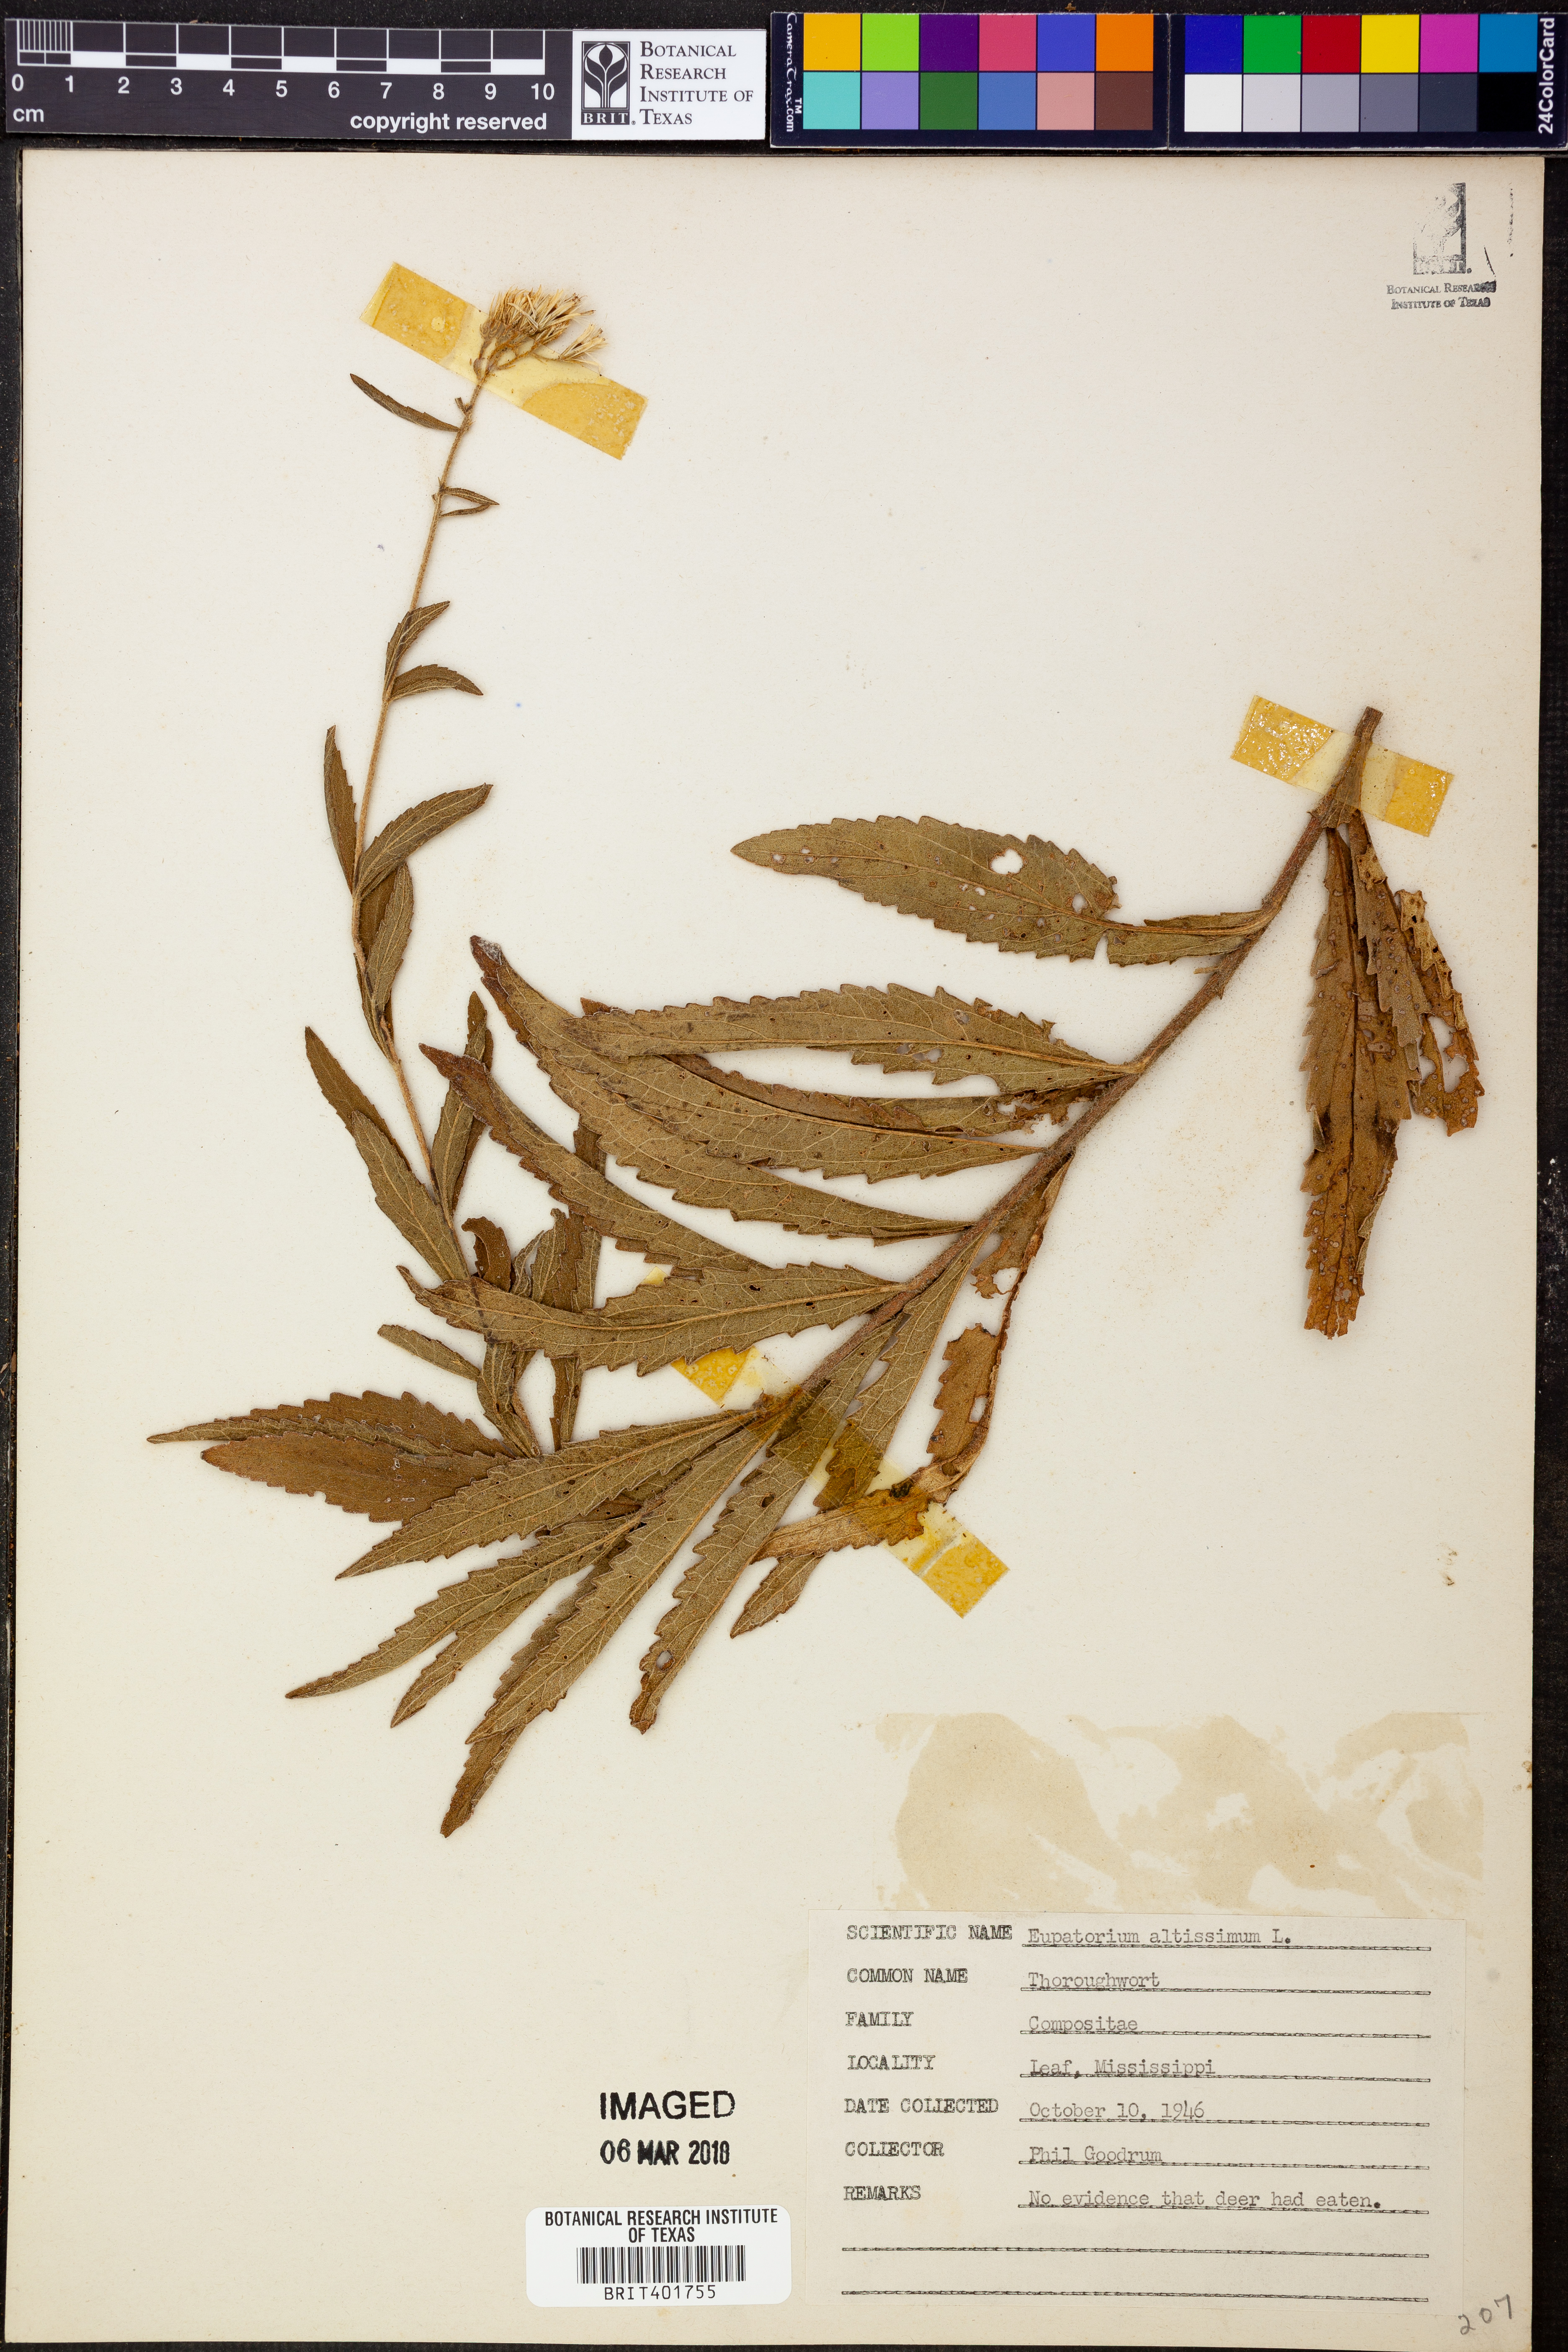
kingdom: Plantae
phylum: Tracheophyta
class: Magnoliopsida
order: Asterales
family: Asteraceae
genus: Eupatorium
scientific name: Eupatorium altissimum
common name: Tall thoroughwort
